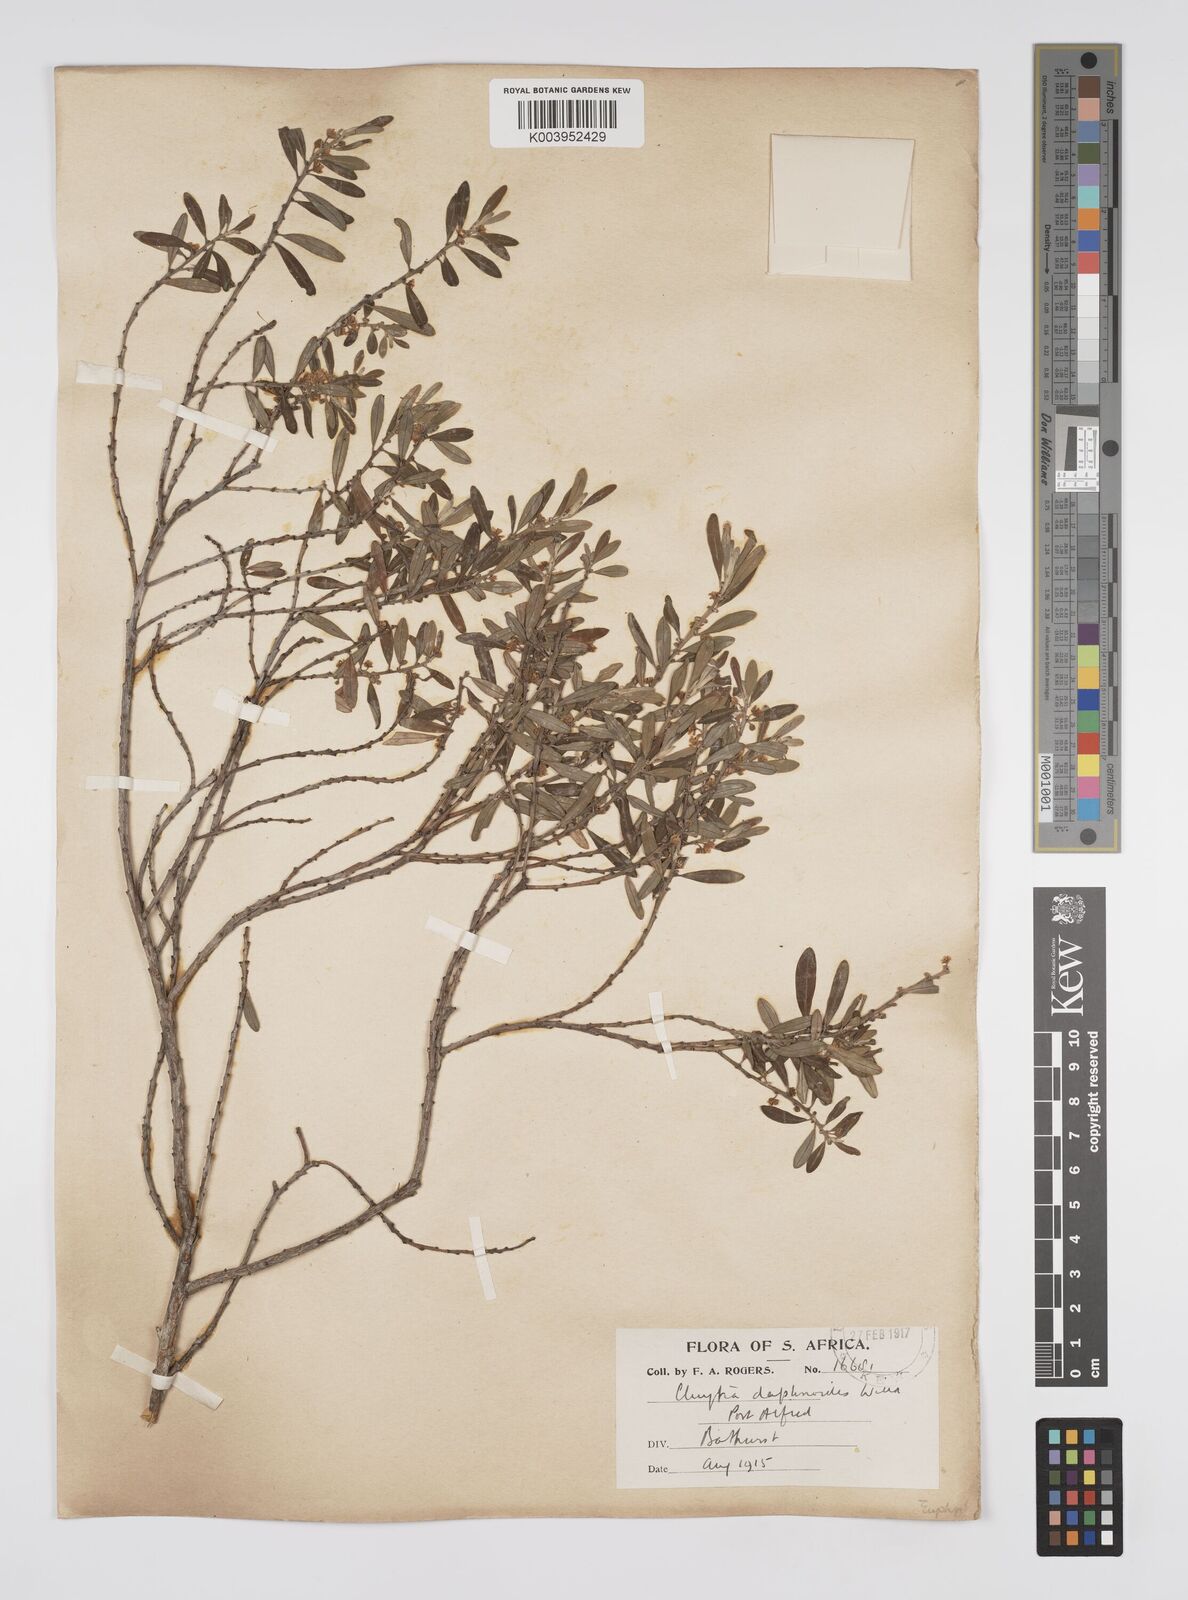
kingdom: Plantae
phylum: Tracheophyta
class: Magnoliopsida
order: Malpighiales
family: Peraceae
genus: Clutia
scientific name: Clutia daphnoides
